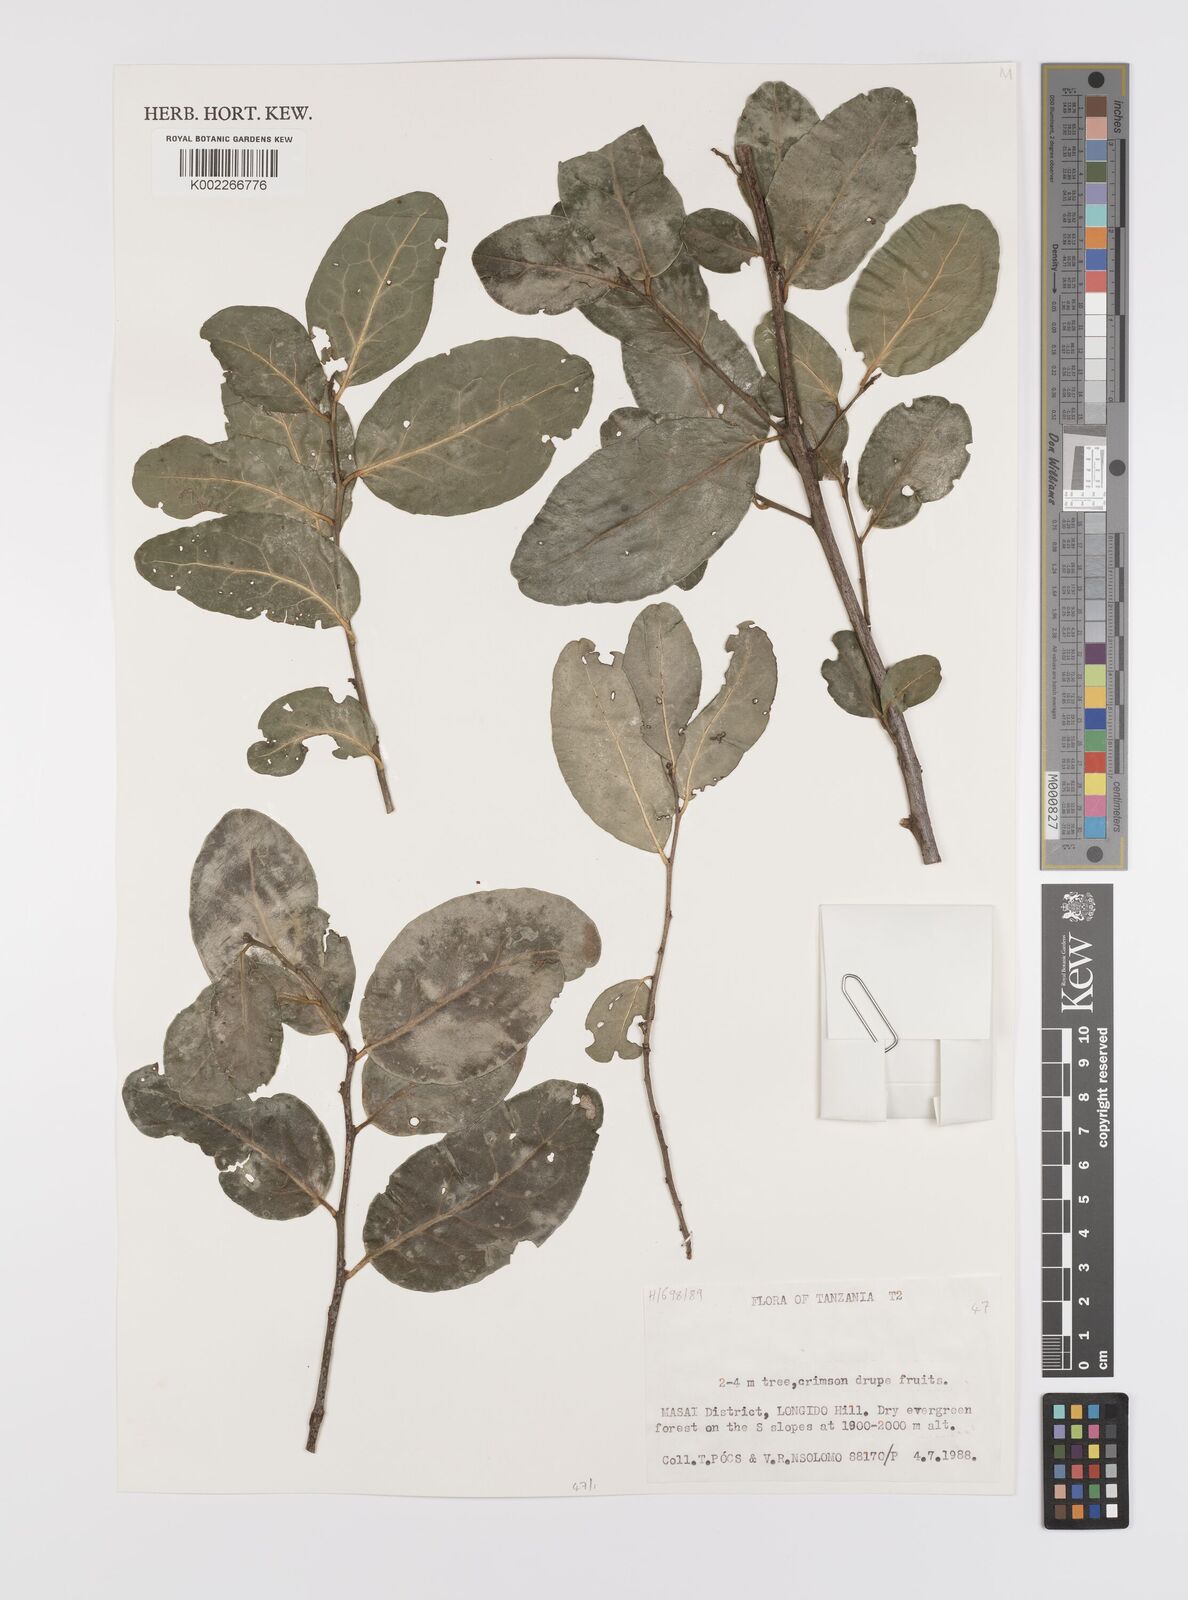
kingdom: Plantae
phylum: Tracheophyta
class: Magnoliopsida
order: Celastrales
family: Celastraceae
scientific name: Celastraceae
